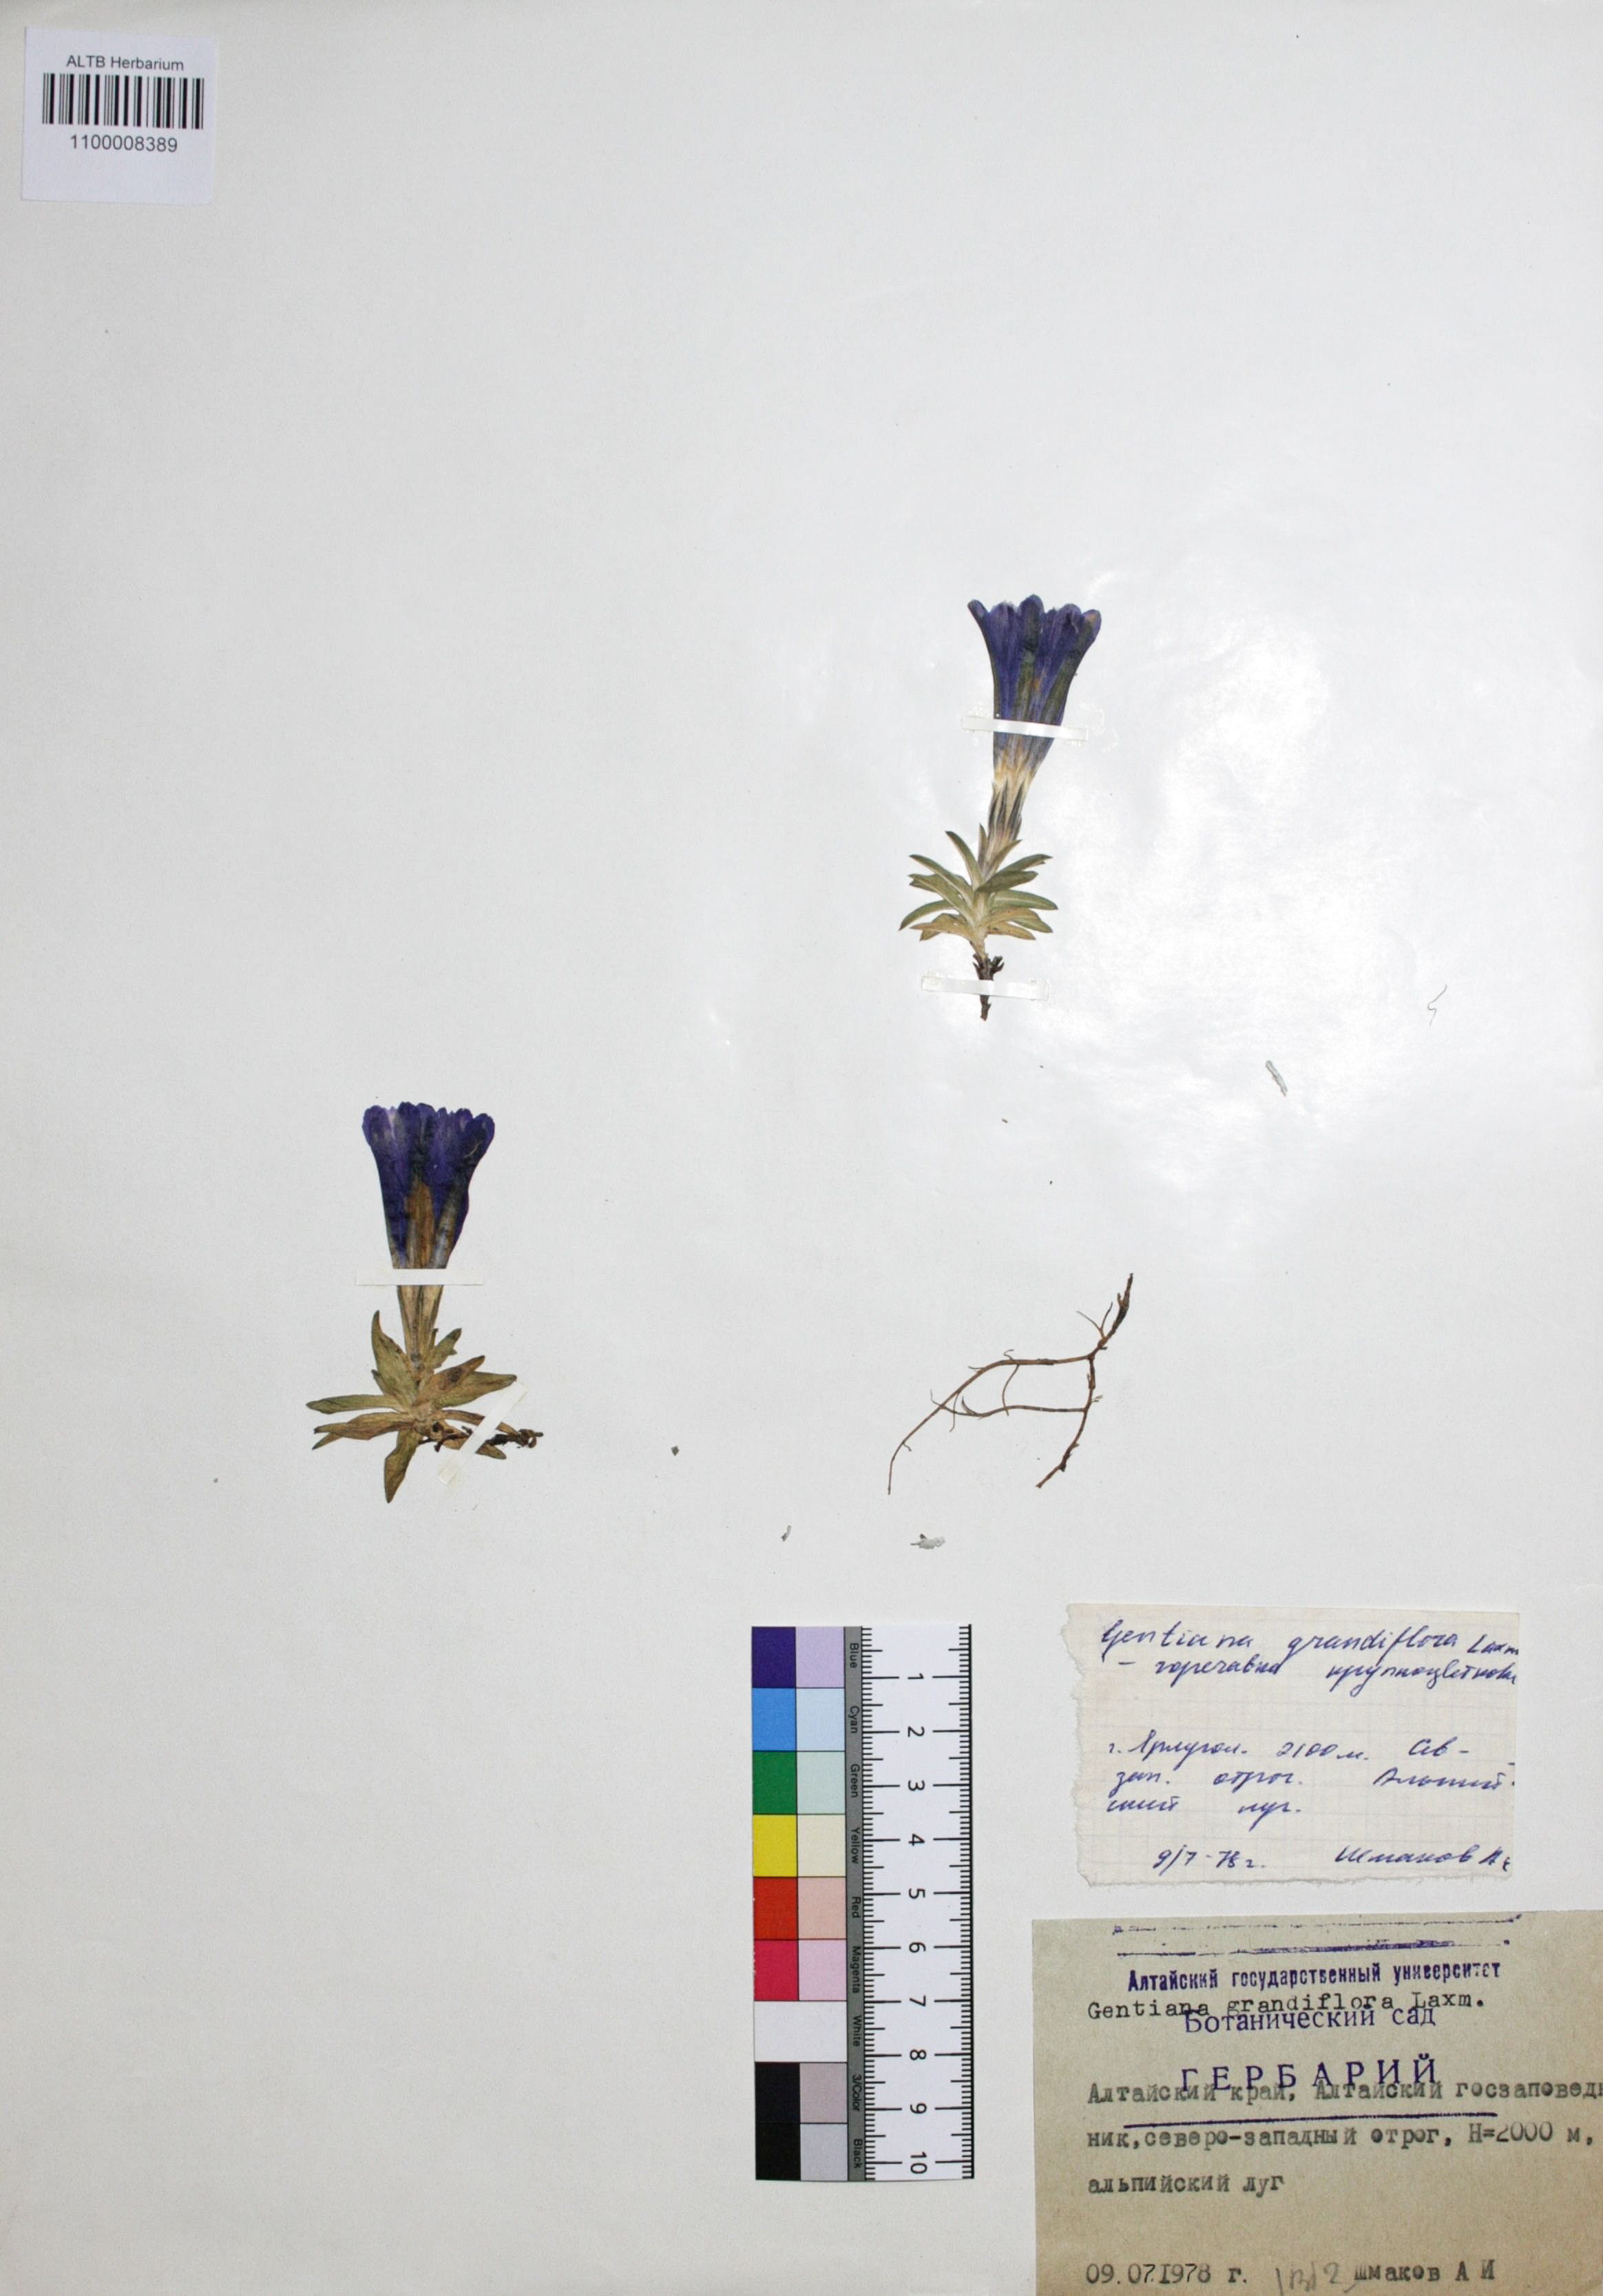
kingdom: Plantae
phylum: Tracheophyta
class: Magnoliopsida
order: Gentianales
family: Gentianaceae
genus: Gentiana
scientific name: Gentiana grandiflora
